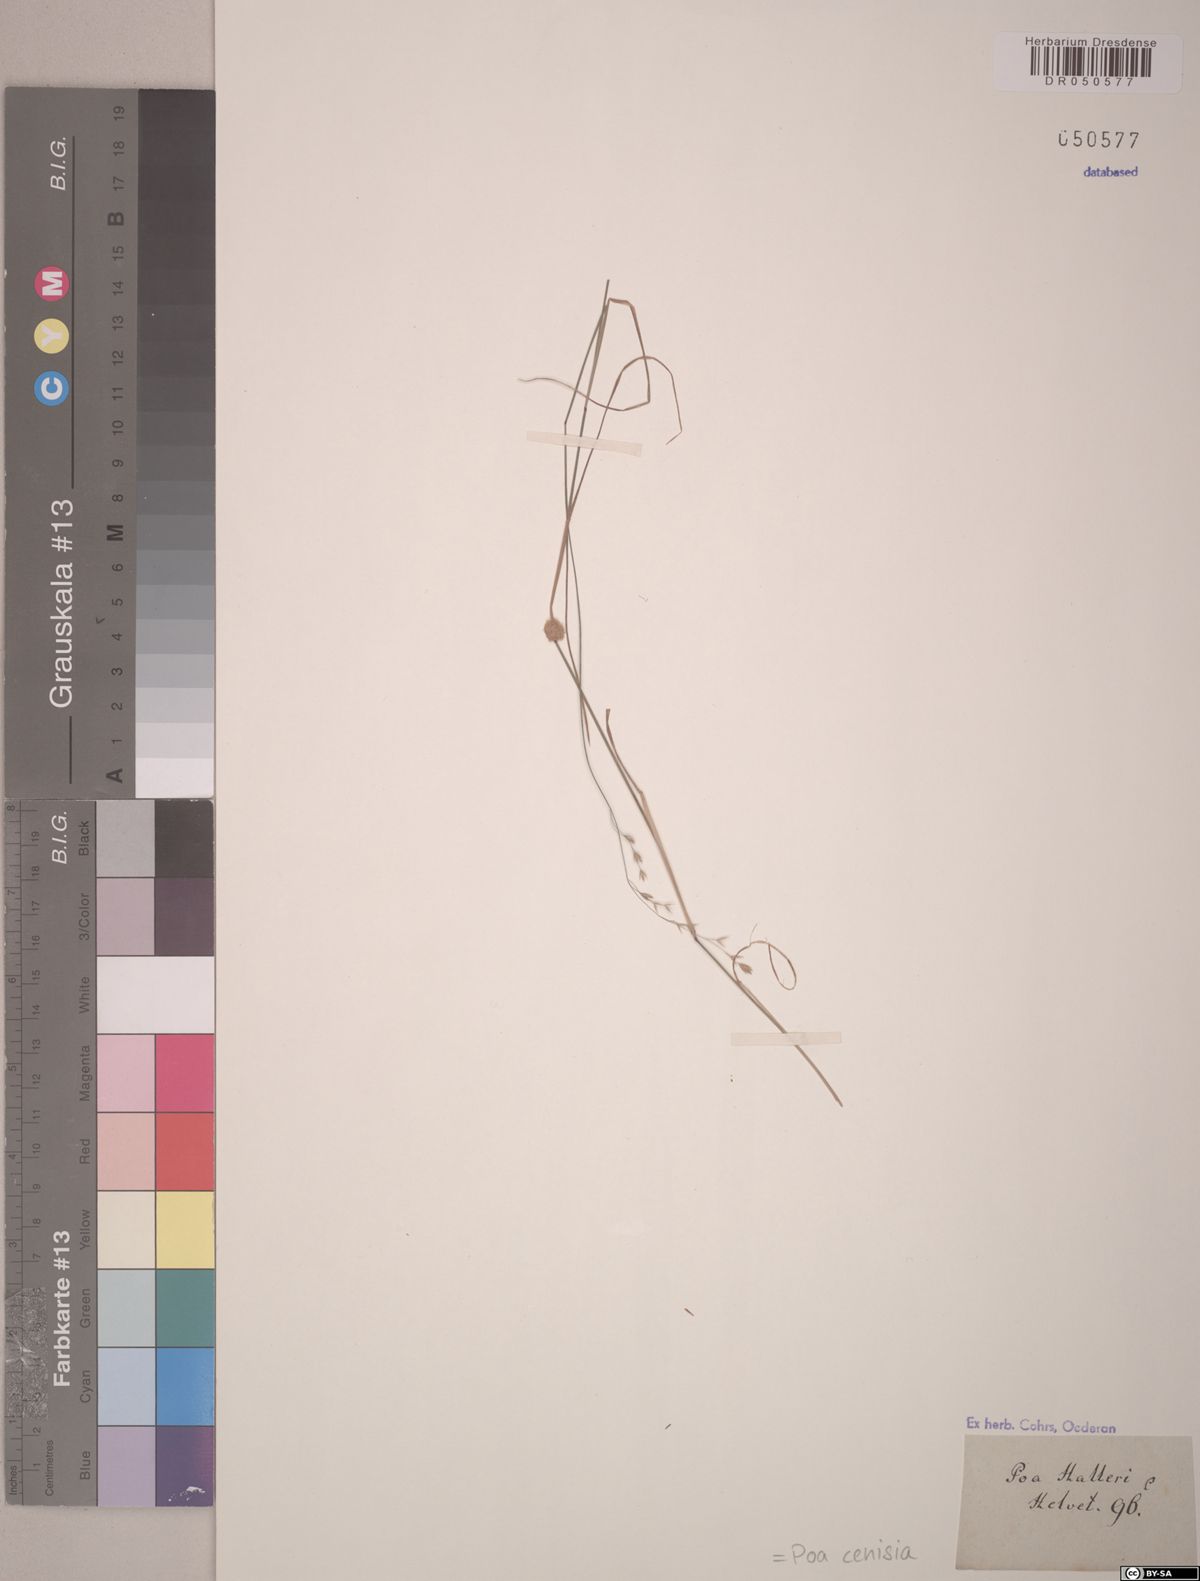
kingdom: Plantae
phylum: Tracheophyta
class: Liliopsida
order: Poales
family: Poaceae
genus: Poa
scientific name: Poa cenisia
